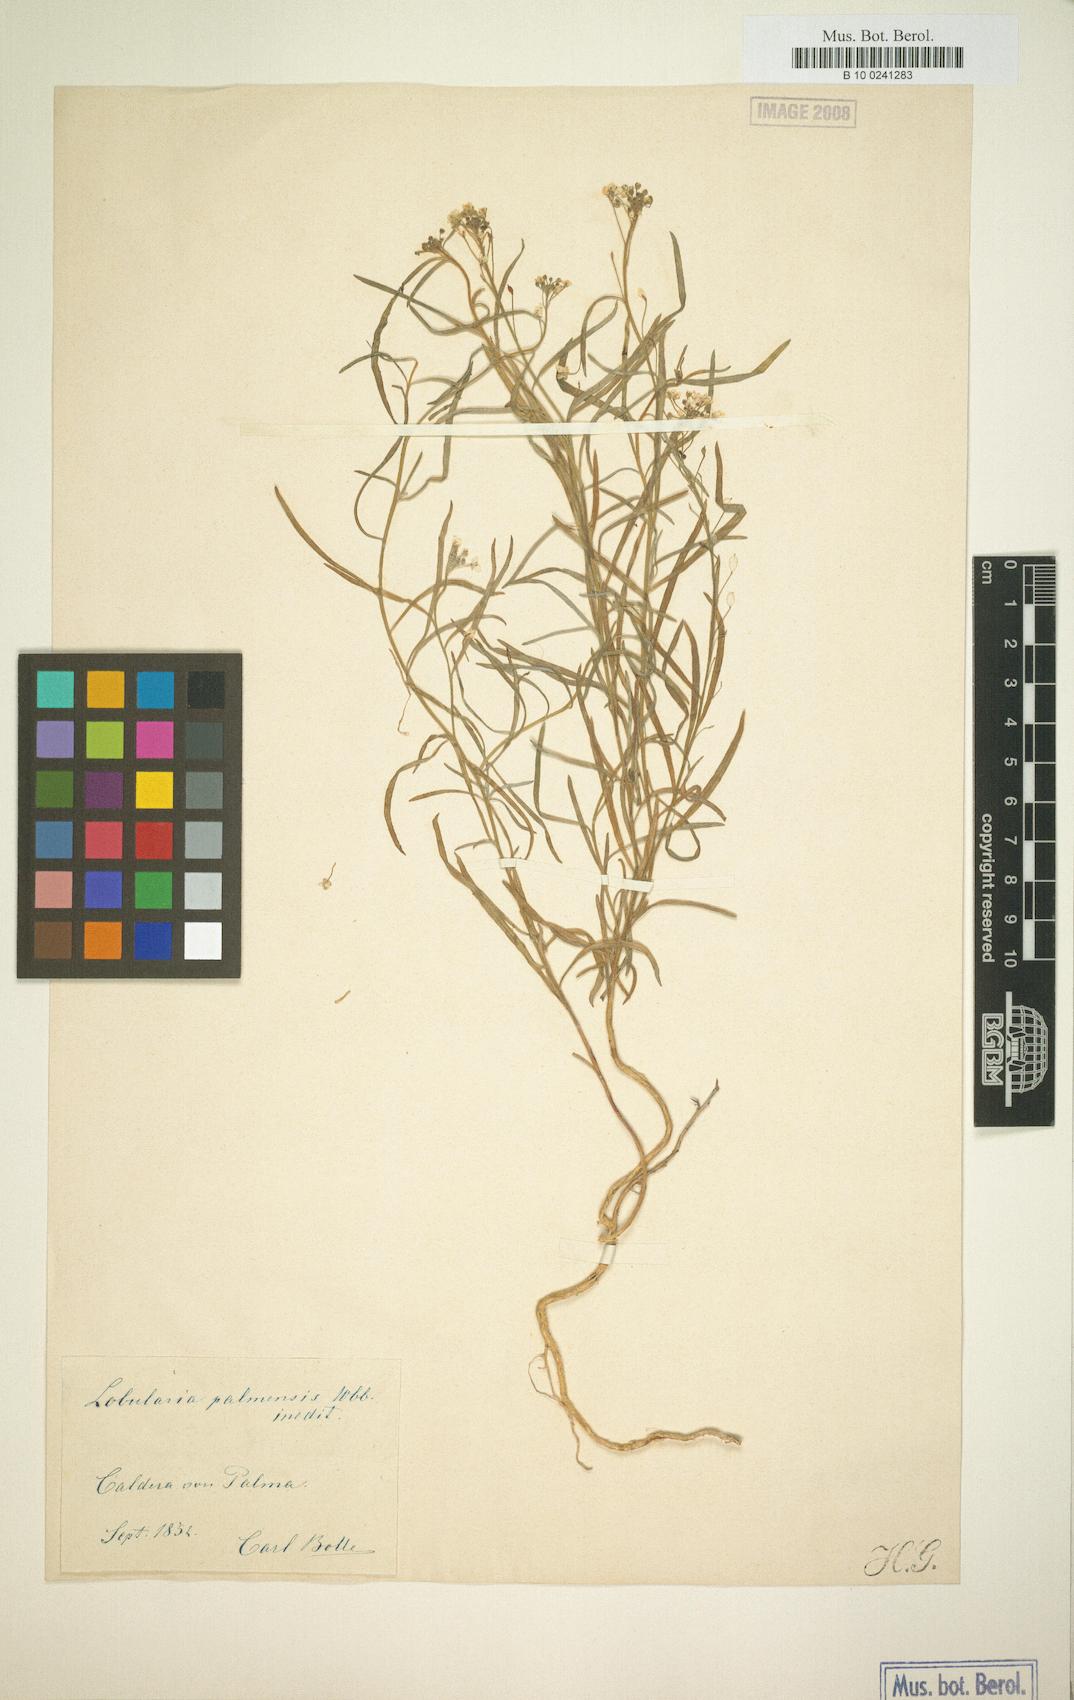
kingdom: Plantae
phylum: Tracheophyta
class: Magnoliopsida
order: Brassicales
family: Brassicaceae
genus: Lobularia
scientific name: Lobularia canariensis
